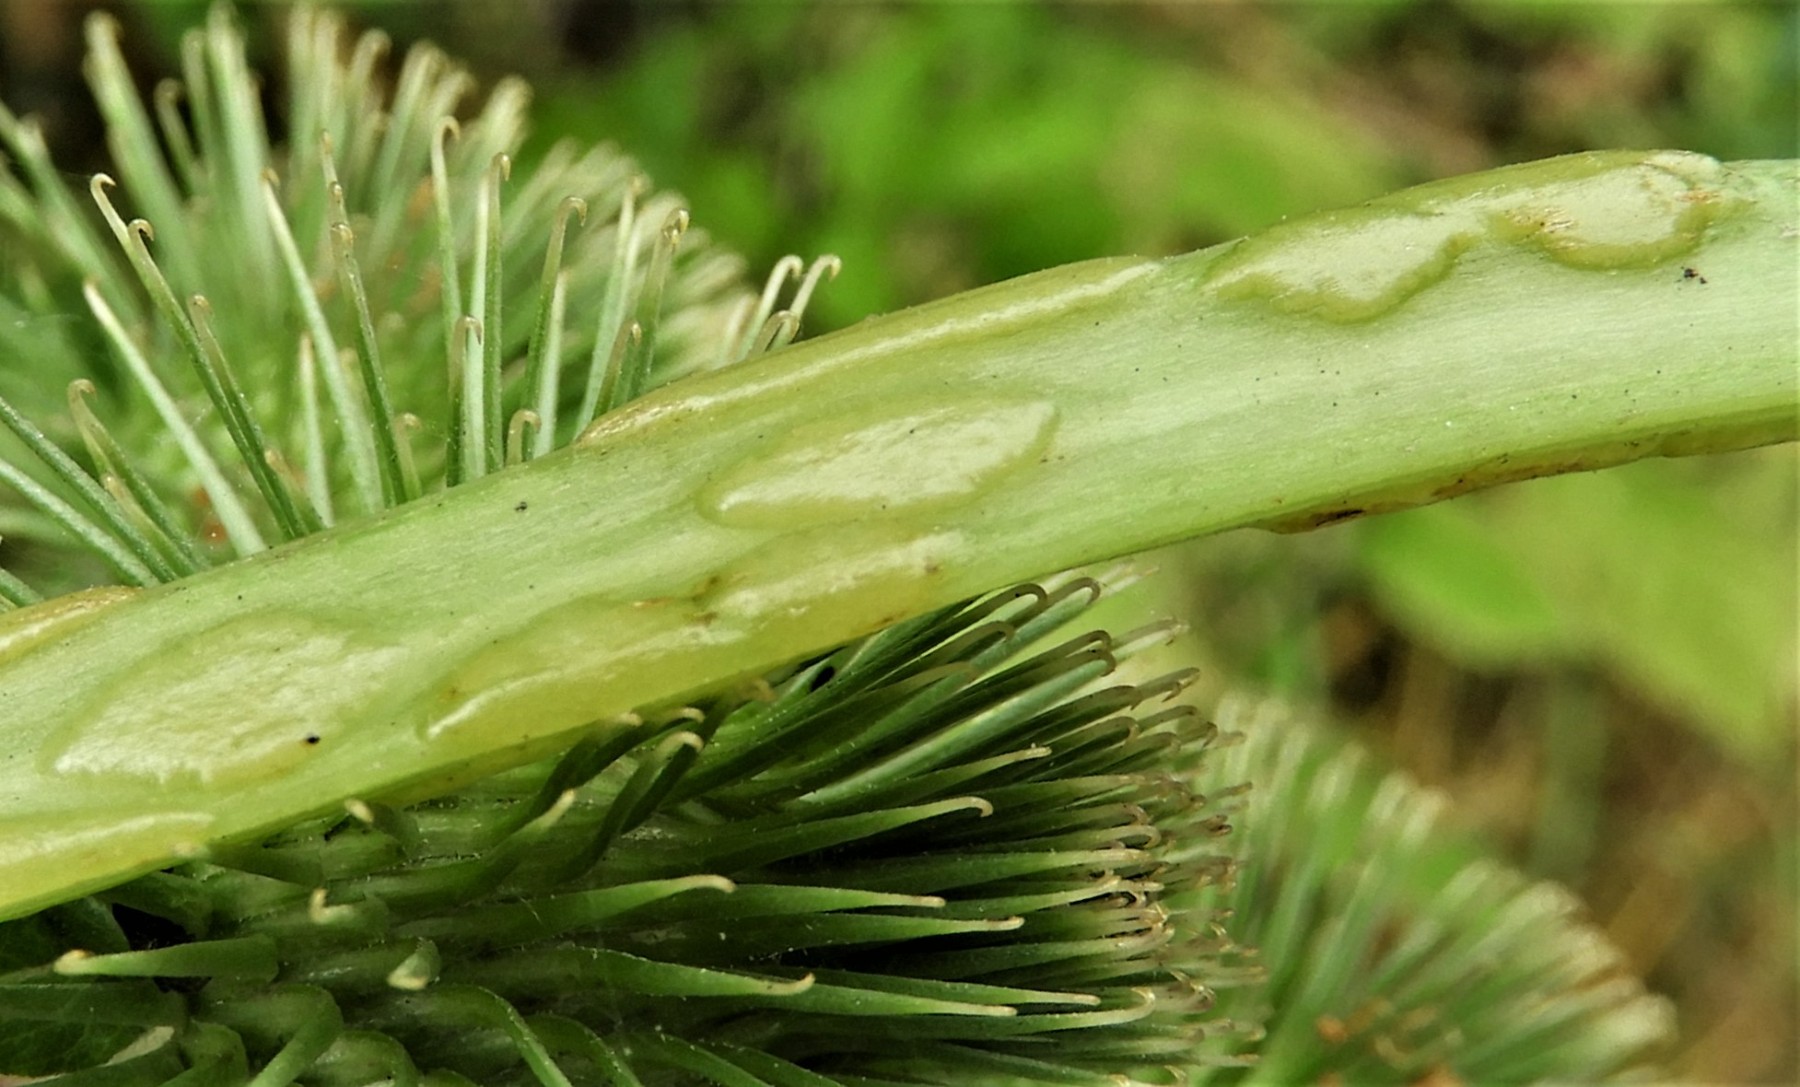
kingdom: Fungi
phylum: Ascomycota
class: Taphrinomycetes
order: Taphrinales
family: Taphrinaceae
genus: Protomyces
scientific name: Protomyces macrosporus
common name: skvalderkål-vablesæk
